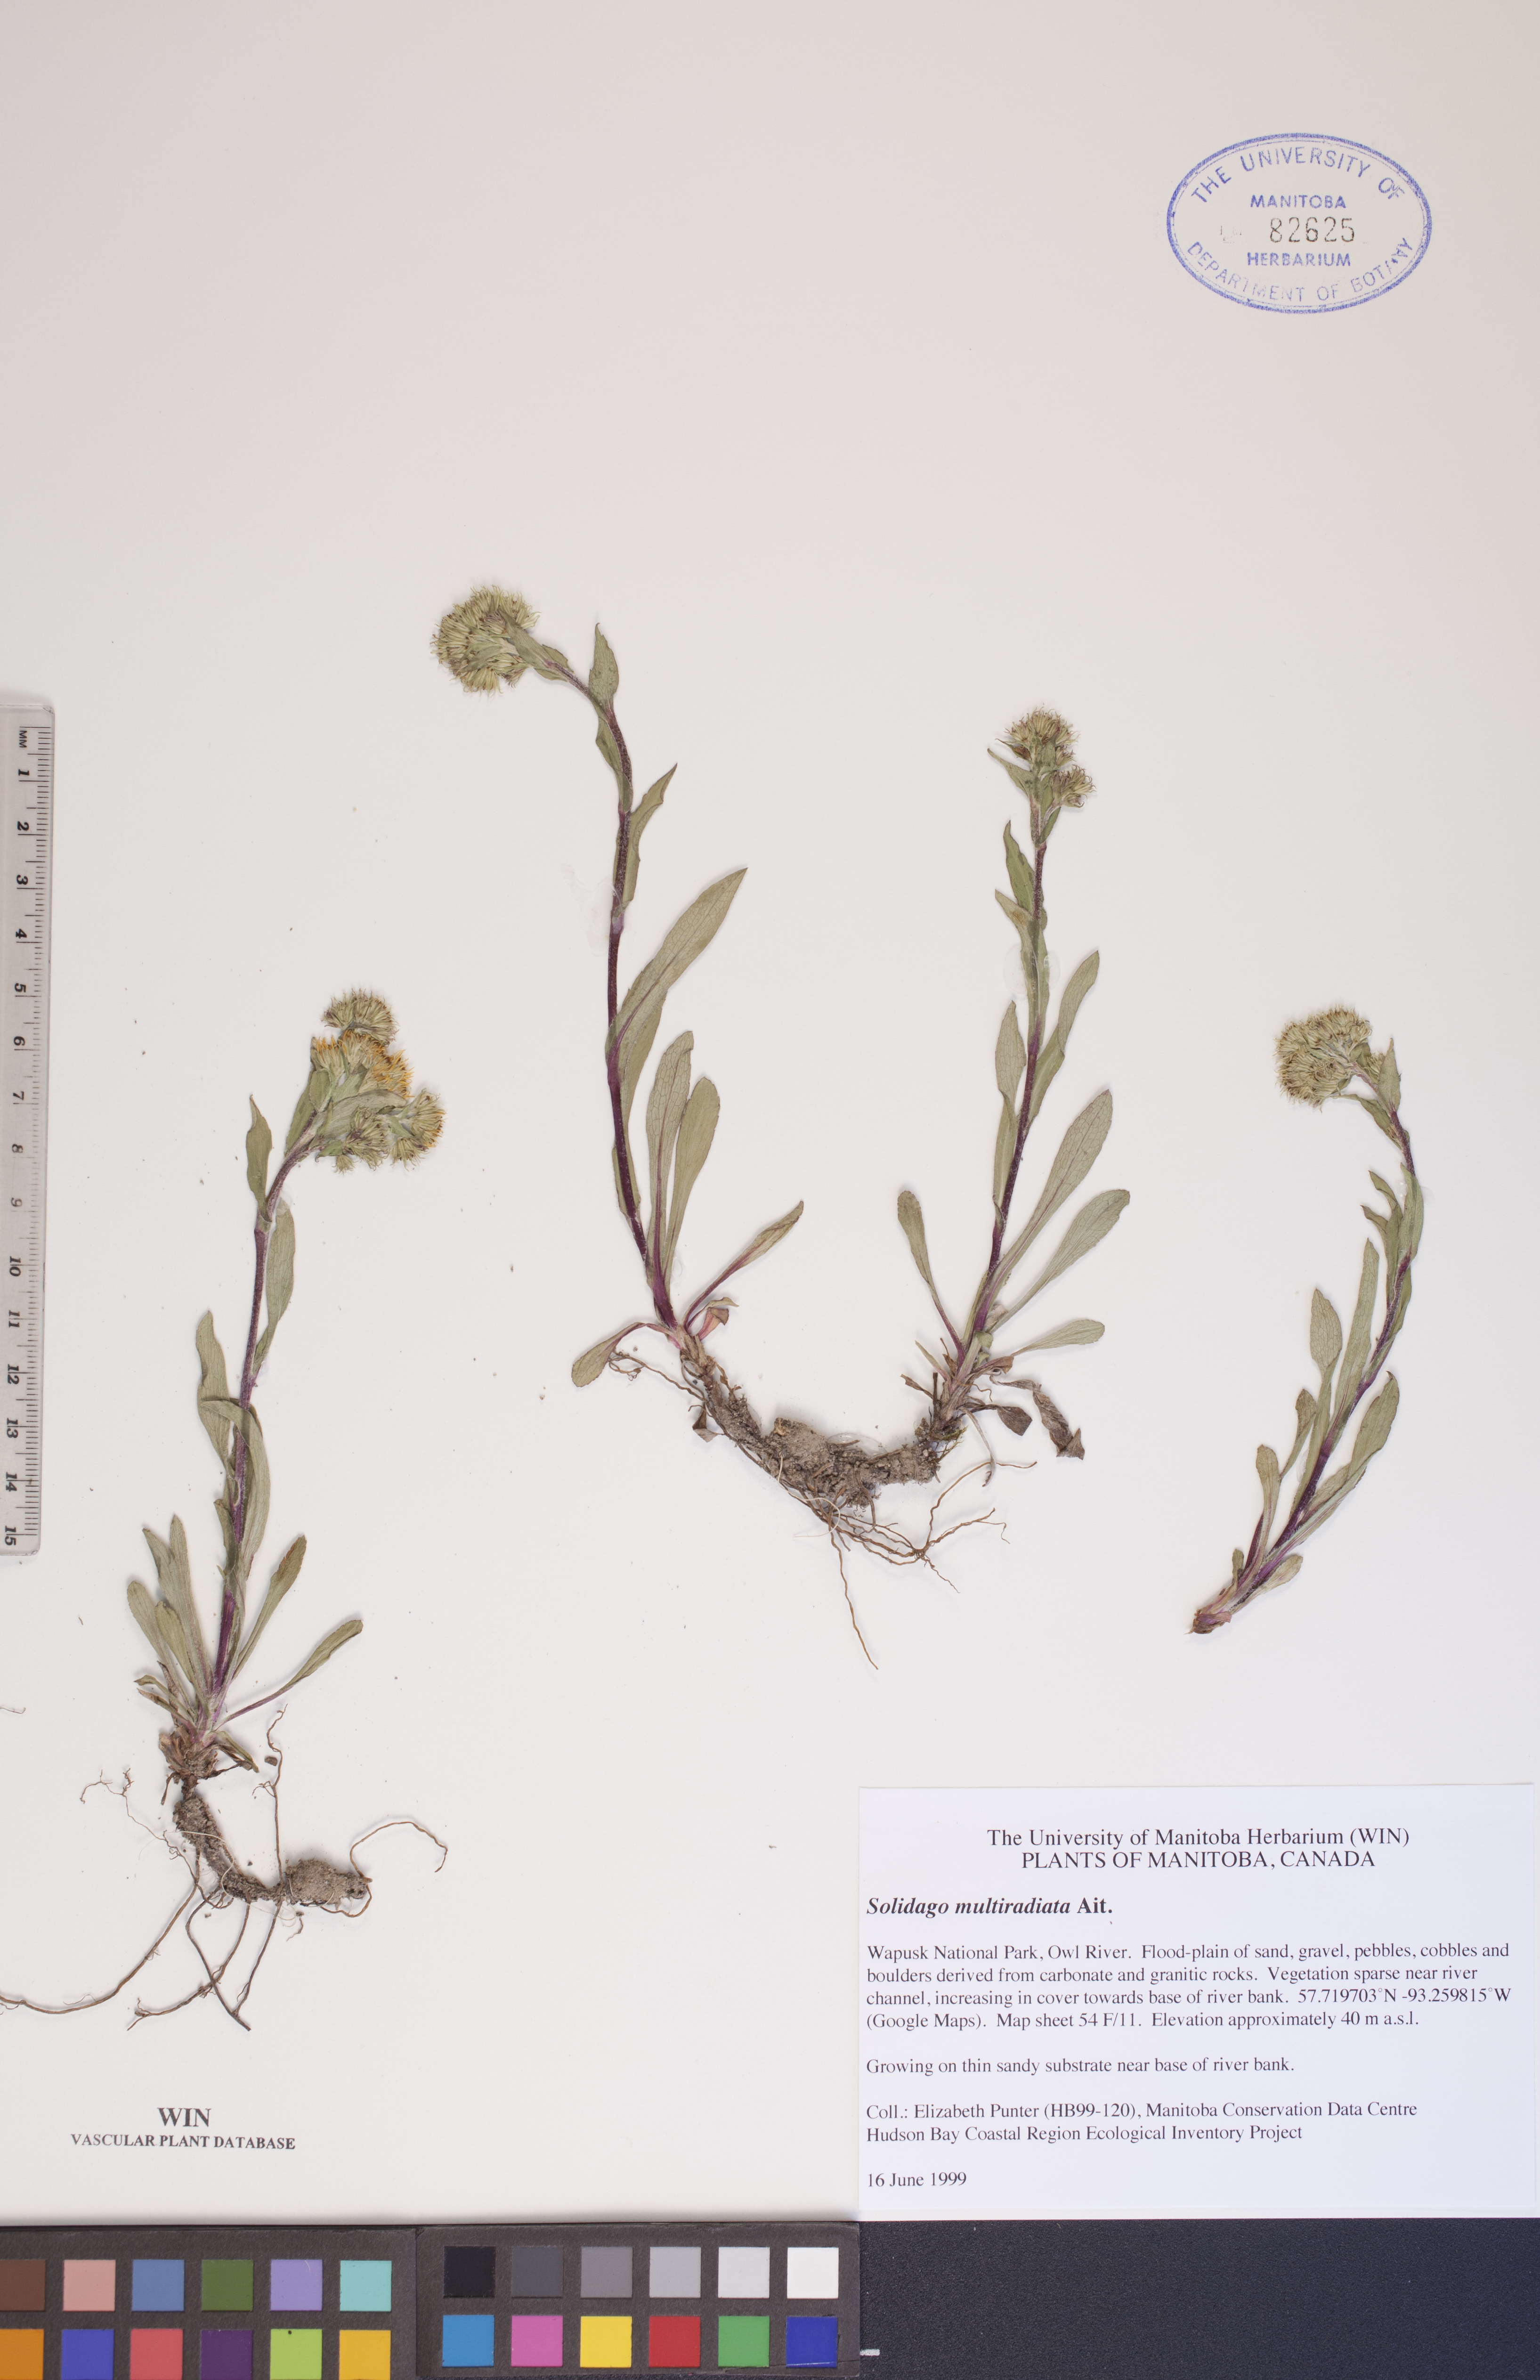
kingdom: Plantae
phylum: Tracheophyta
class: Magnoliopsida
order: Asterales
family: Asteraceae
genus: Solidago
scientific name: Solidago multiradiata
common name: Northern goldenrod
